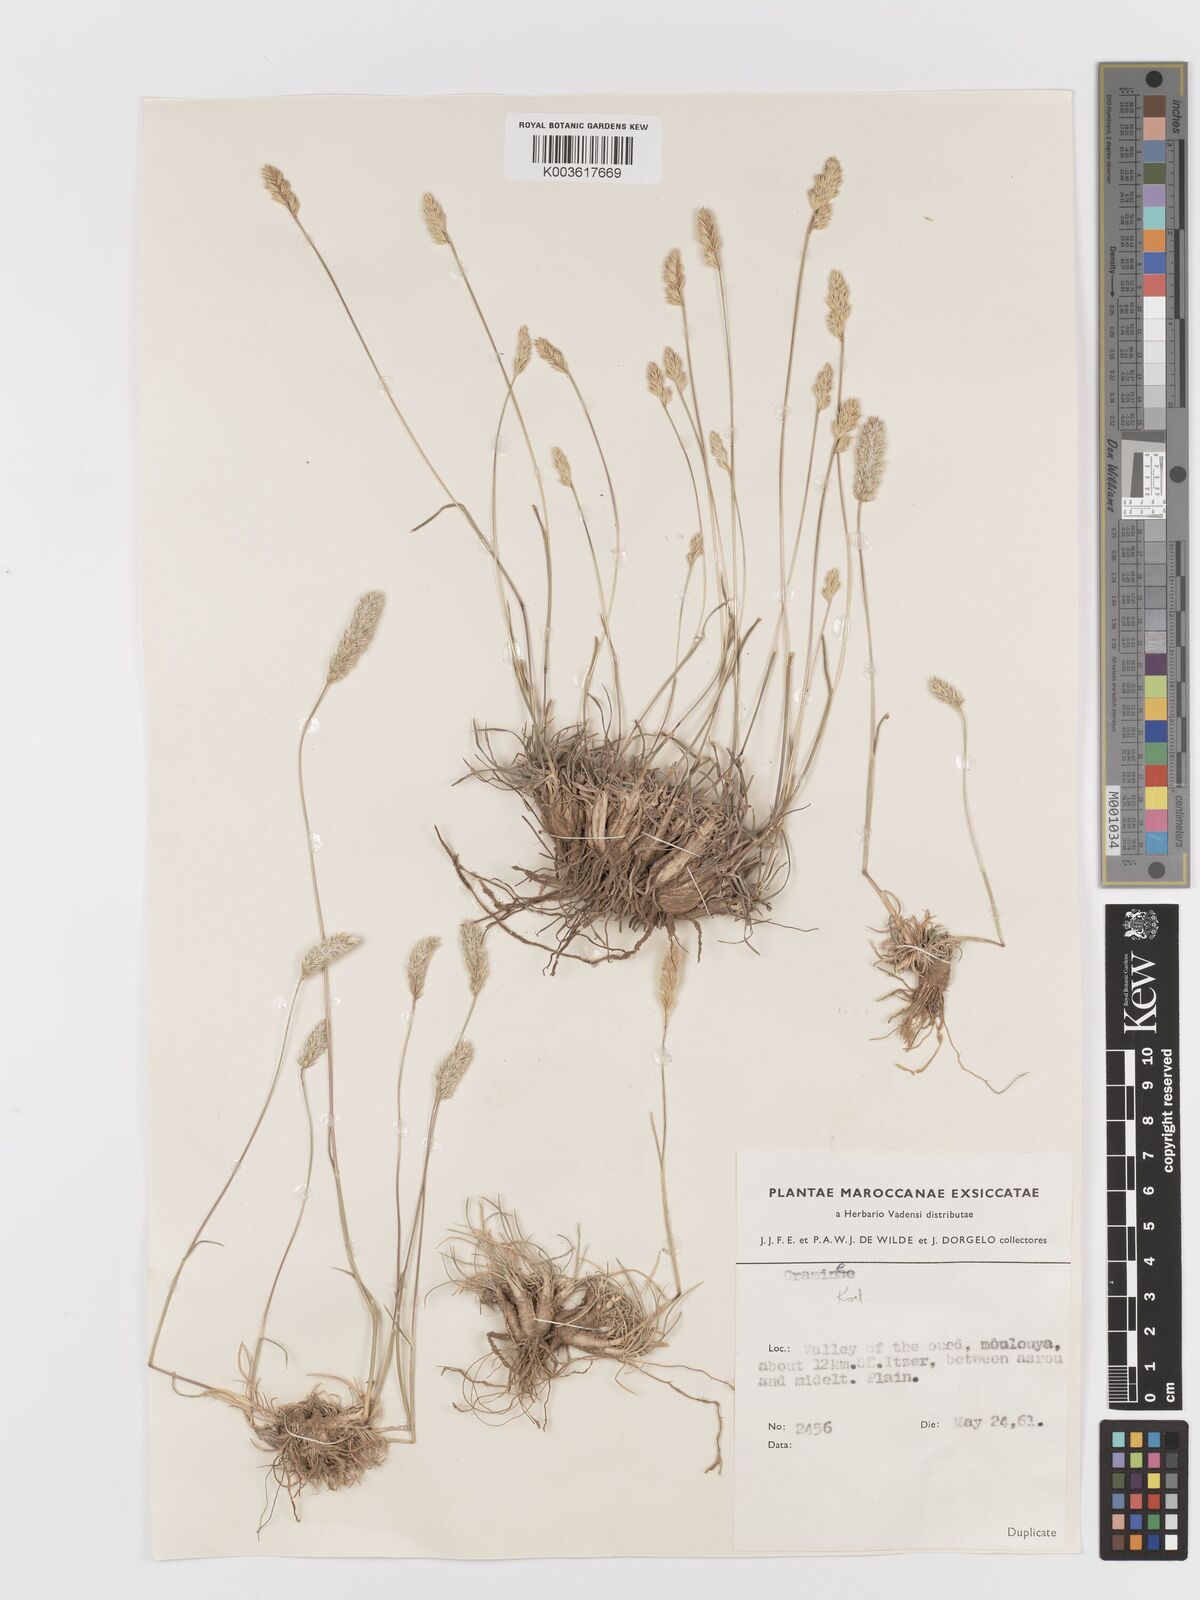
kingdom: Plantae
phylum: Tracheophyta
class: Liliopsida
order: Poales
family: Poaceae
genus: Koeleria
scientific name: Koeleria vallesiana
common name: Somerset hair-grass
